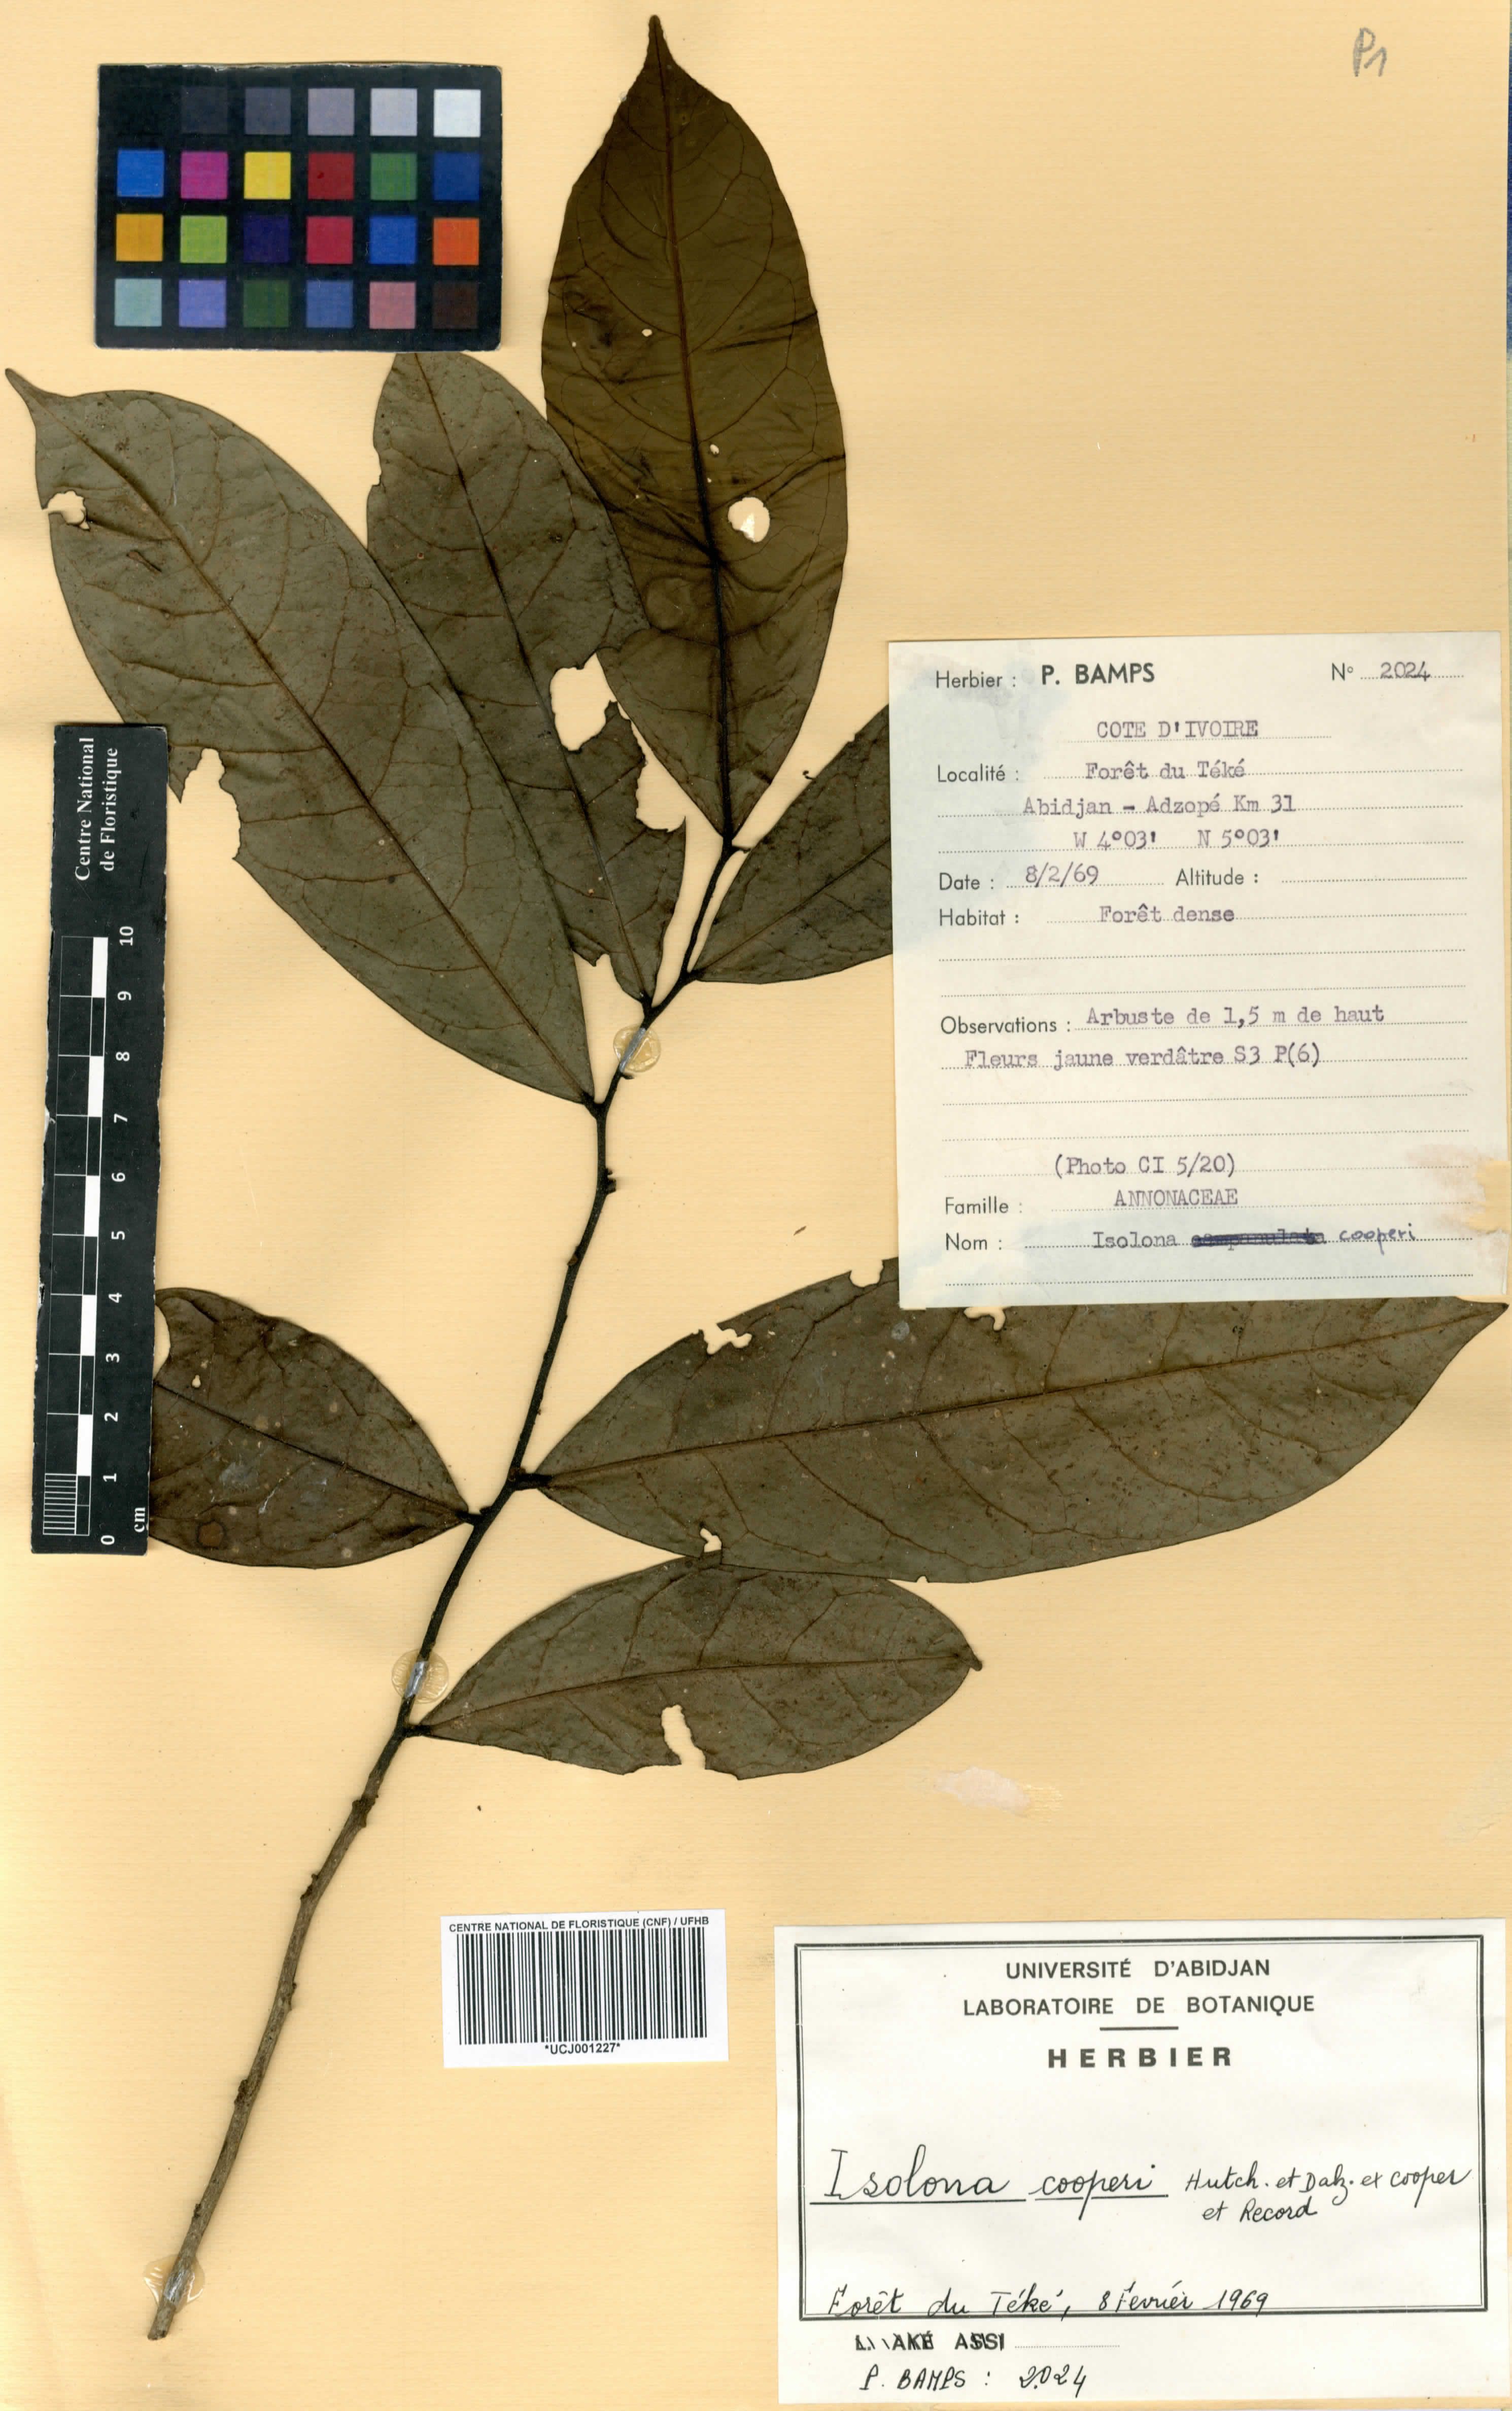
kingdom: Plantae
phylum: Tracheophyta
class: Magnoliopsida
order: Magnoliales
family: Annonaceae
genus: Isolona
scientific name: Isolona cooperi
